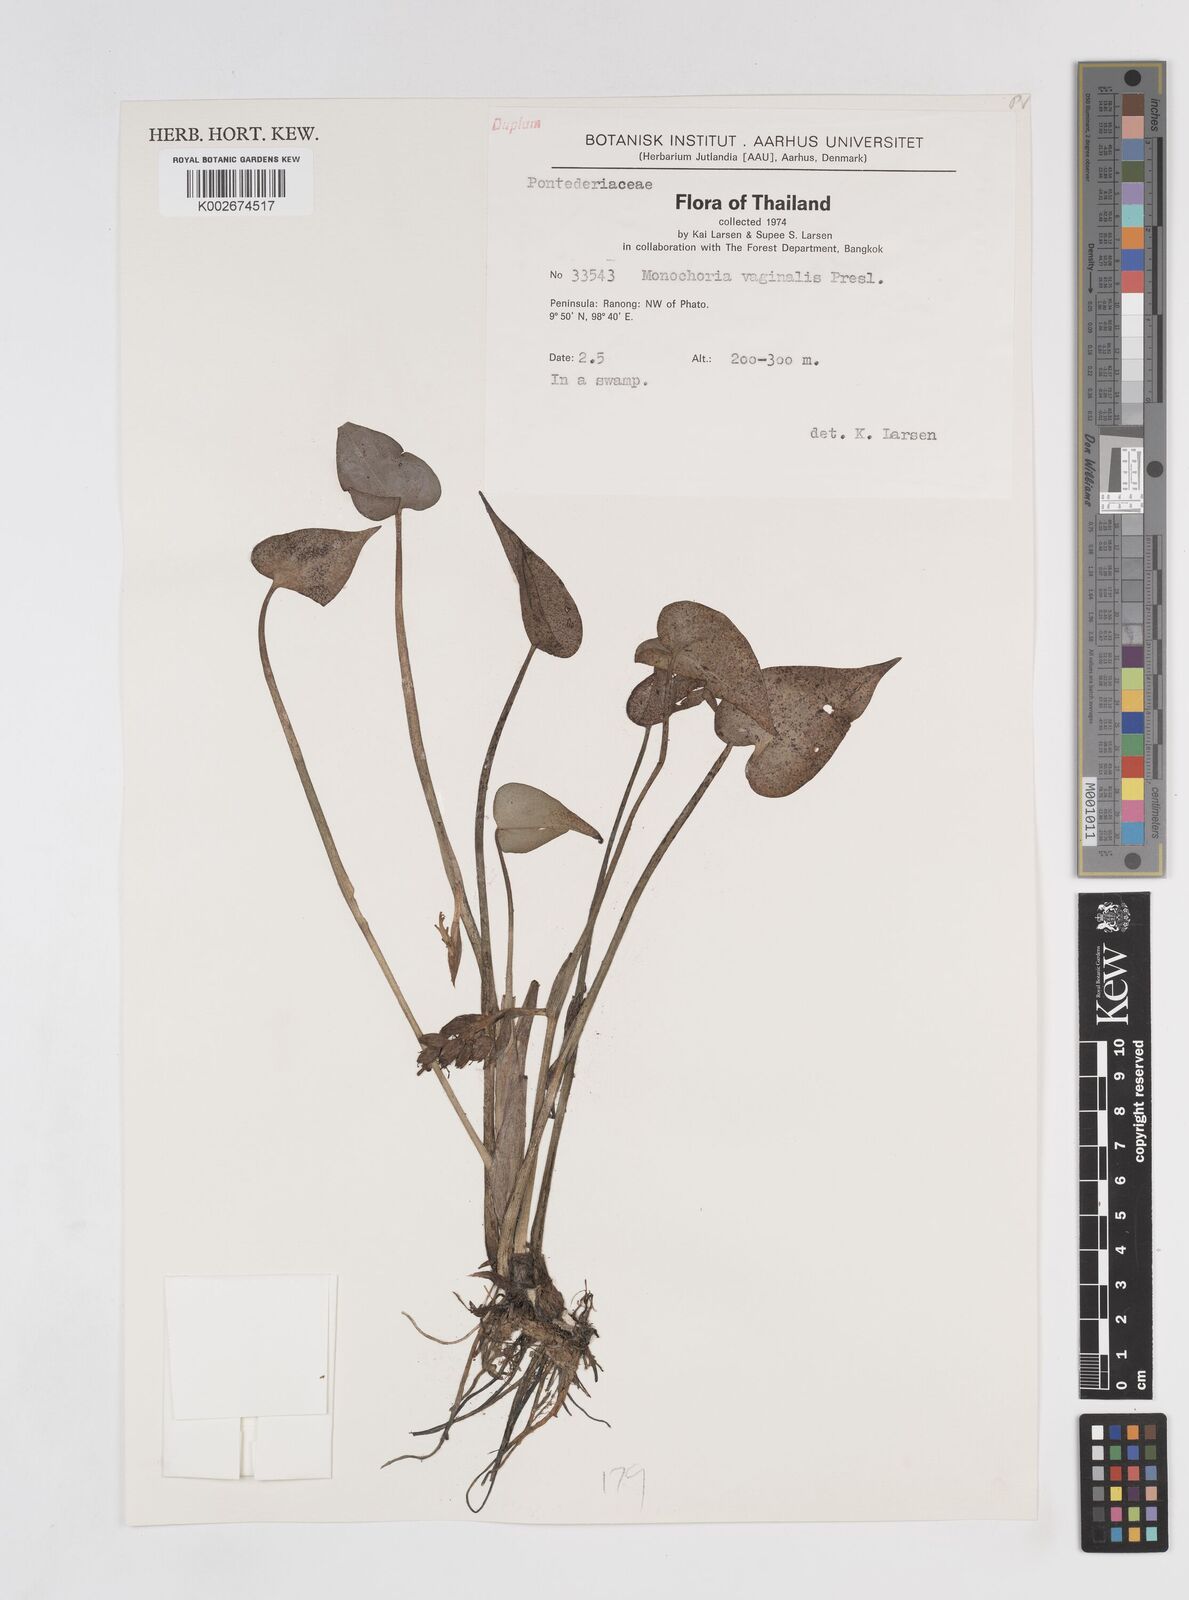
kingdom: Plantae
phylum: Tracheophyta
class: Liliopsida
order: Commelinales
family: Pontederiaceae
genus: Pontederia
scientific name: Pontederia vaginalis
